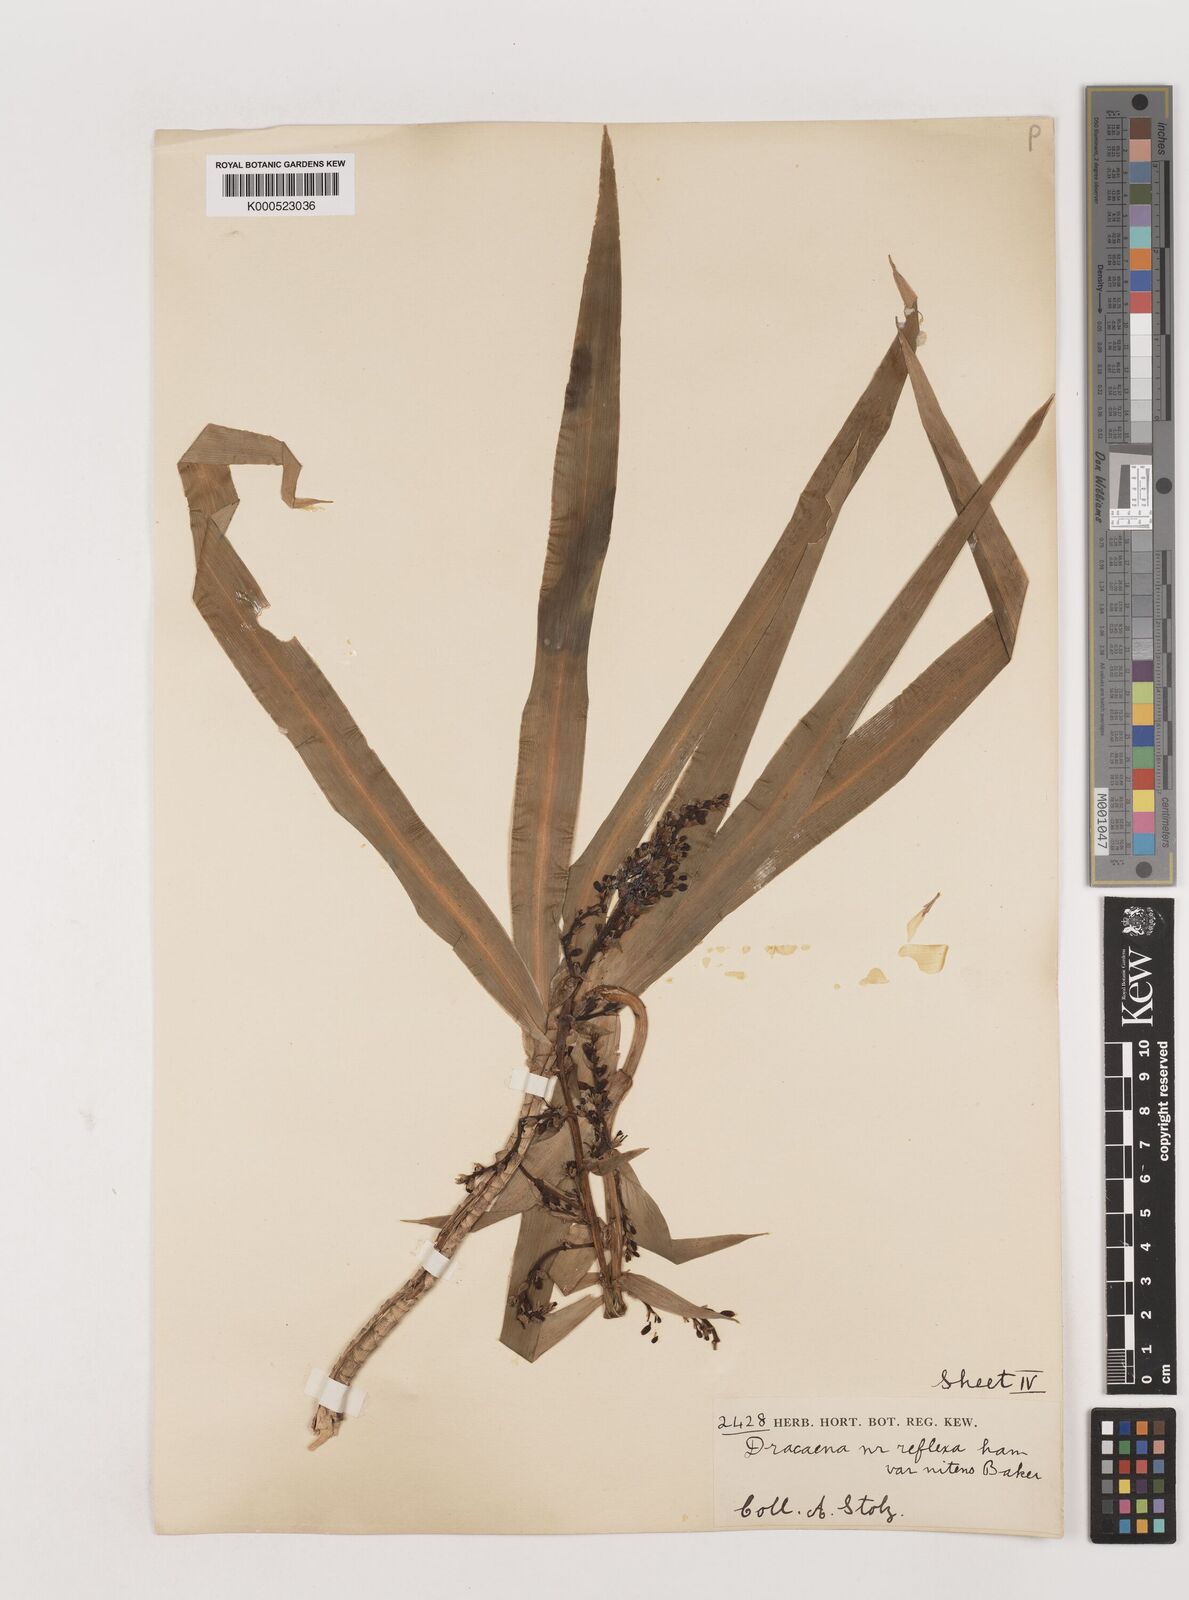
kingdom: Plantae
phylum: Tracheophyta
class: Liliopsida
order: Asparagales
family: Asparagaceae
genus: Dracaena
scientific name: Dracaena afromontana
